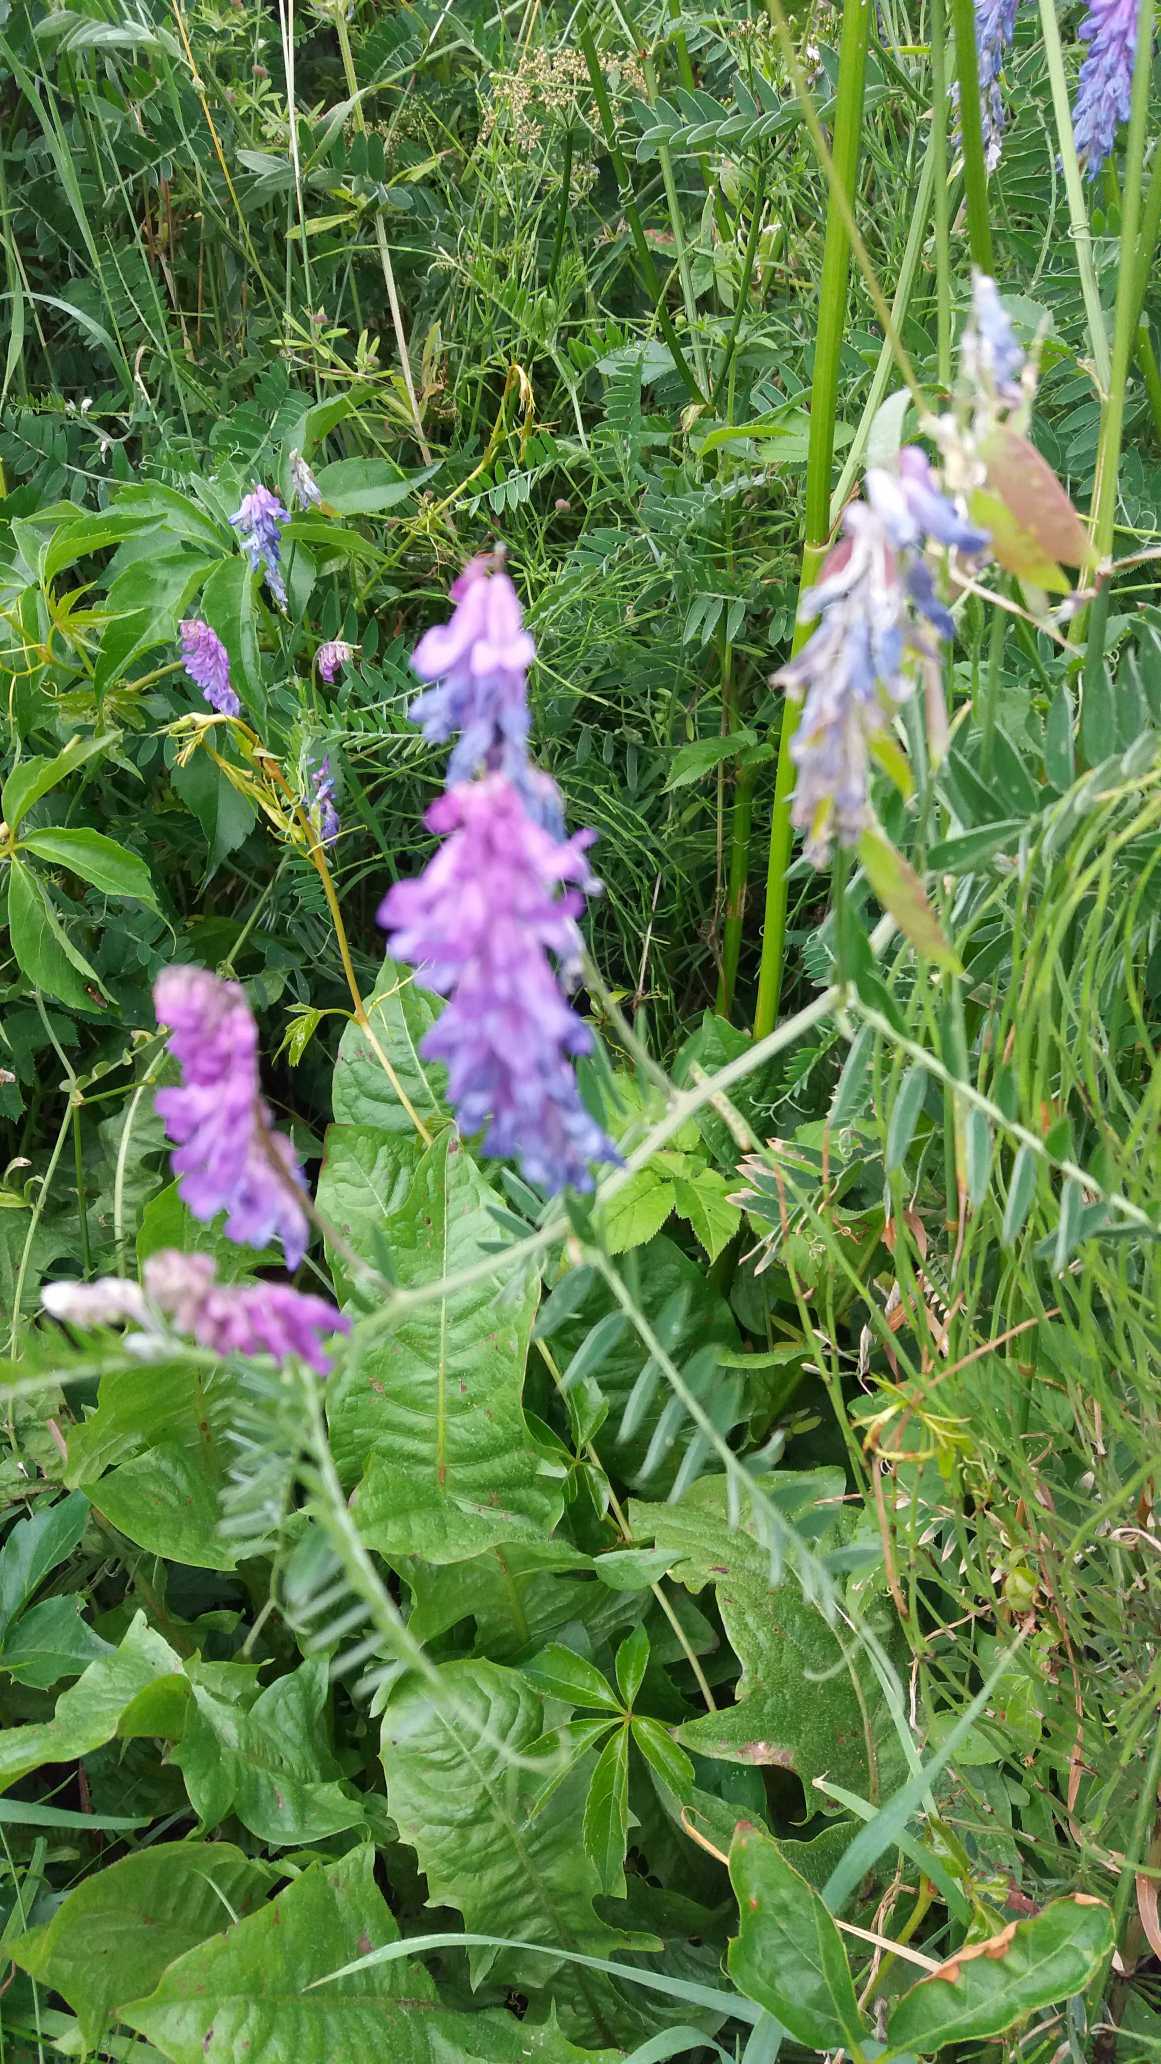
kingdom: Plantae
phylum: Tracheophyta
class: Magnoliopsida
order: Fabales
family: Fabaceae
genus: Vicia
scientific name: Vicia cracca
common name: Muse-vikke
